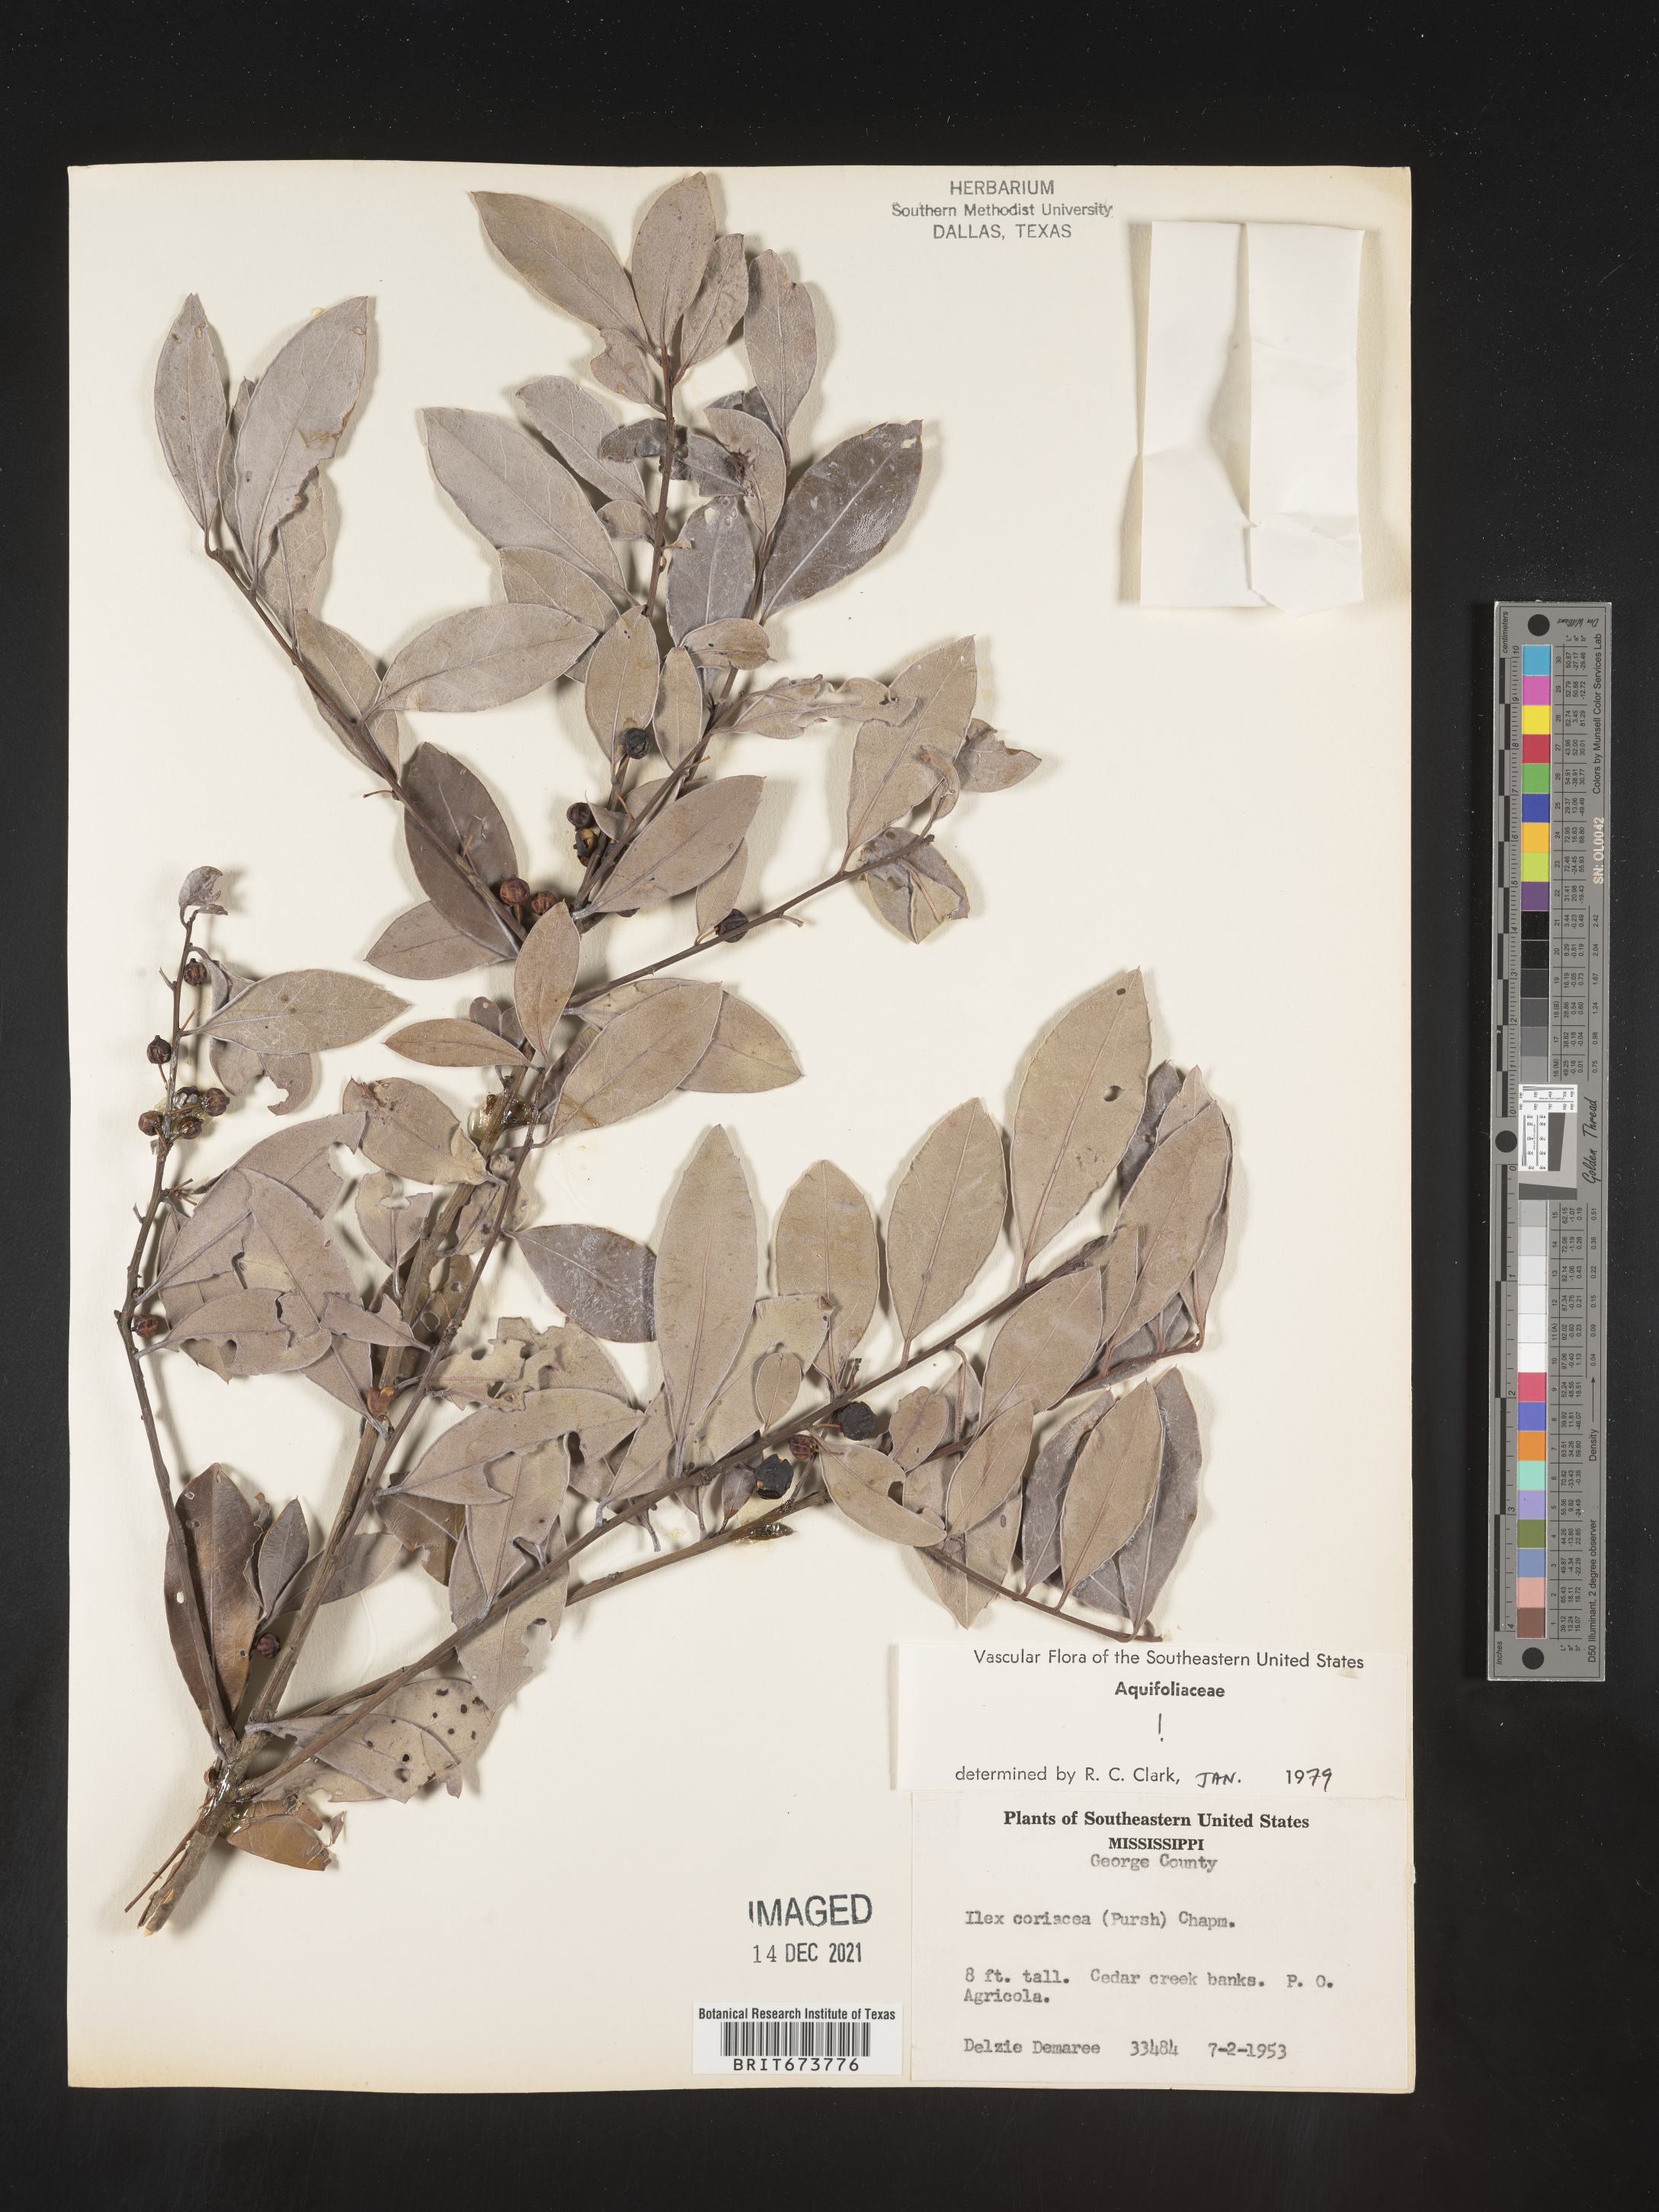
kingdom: Plantae
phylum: Tracheophyta
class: Magnoliopsida
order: Aquifoliales
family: Aquifoliaceae
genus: Ilex
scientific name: Ilex coriacea
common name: Sweet gallberry
